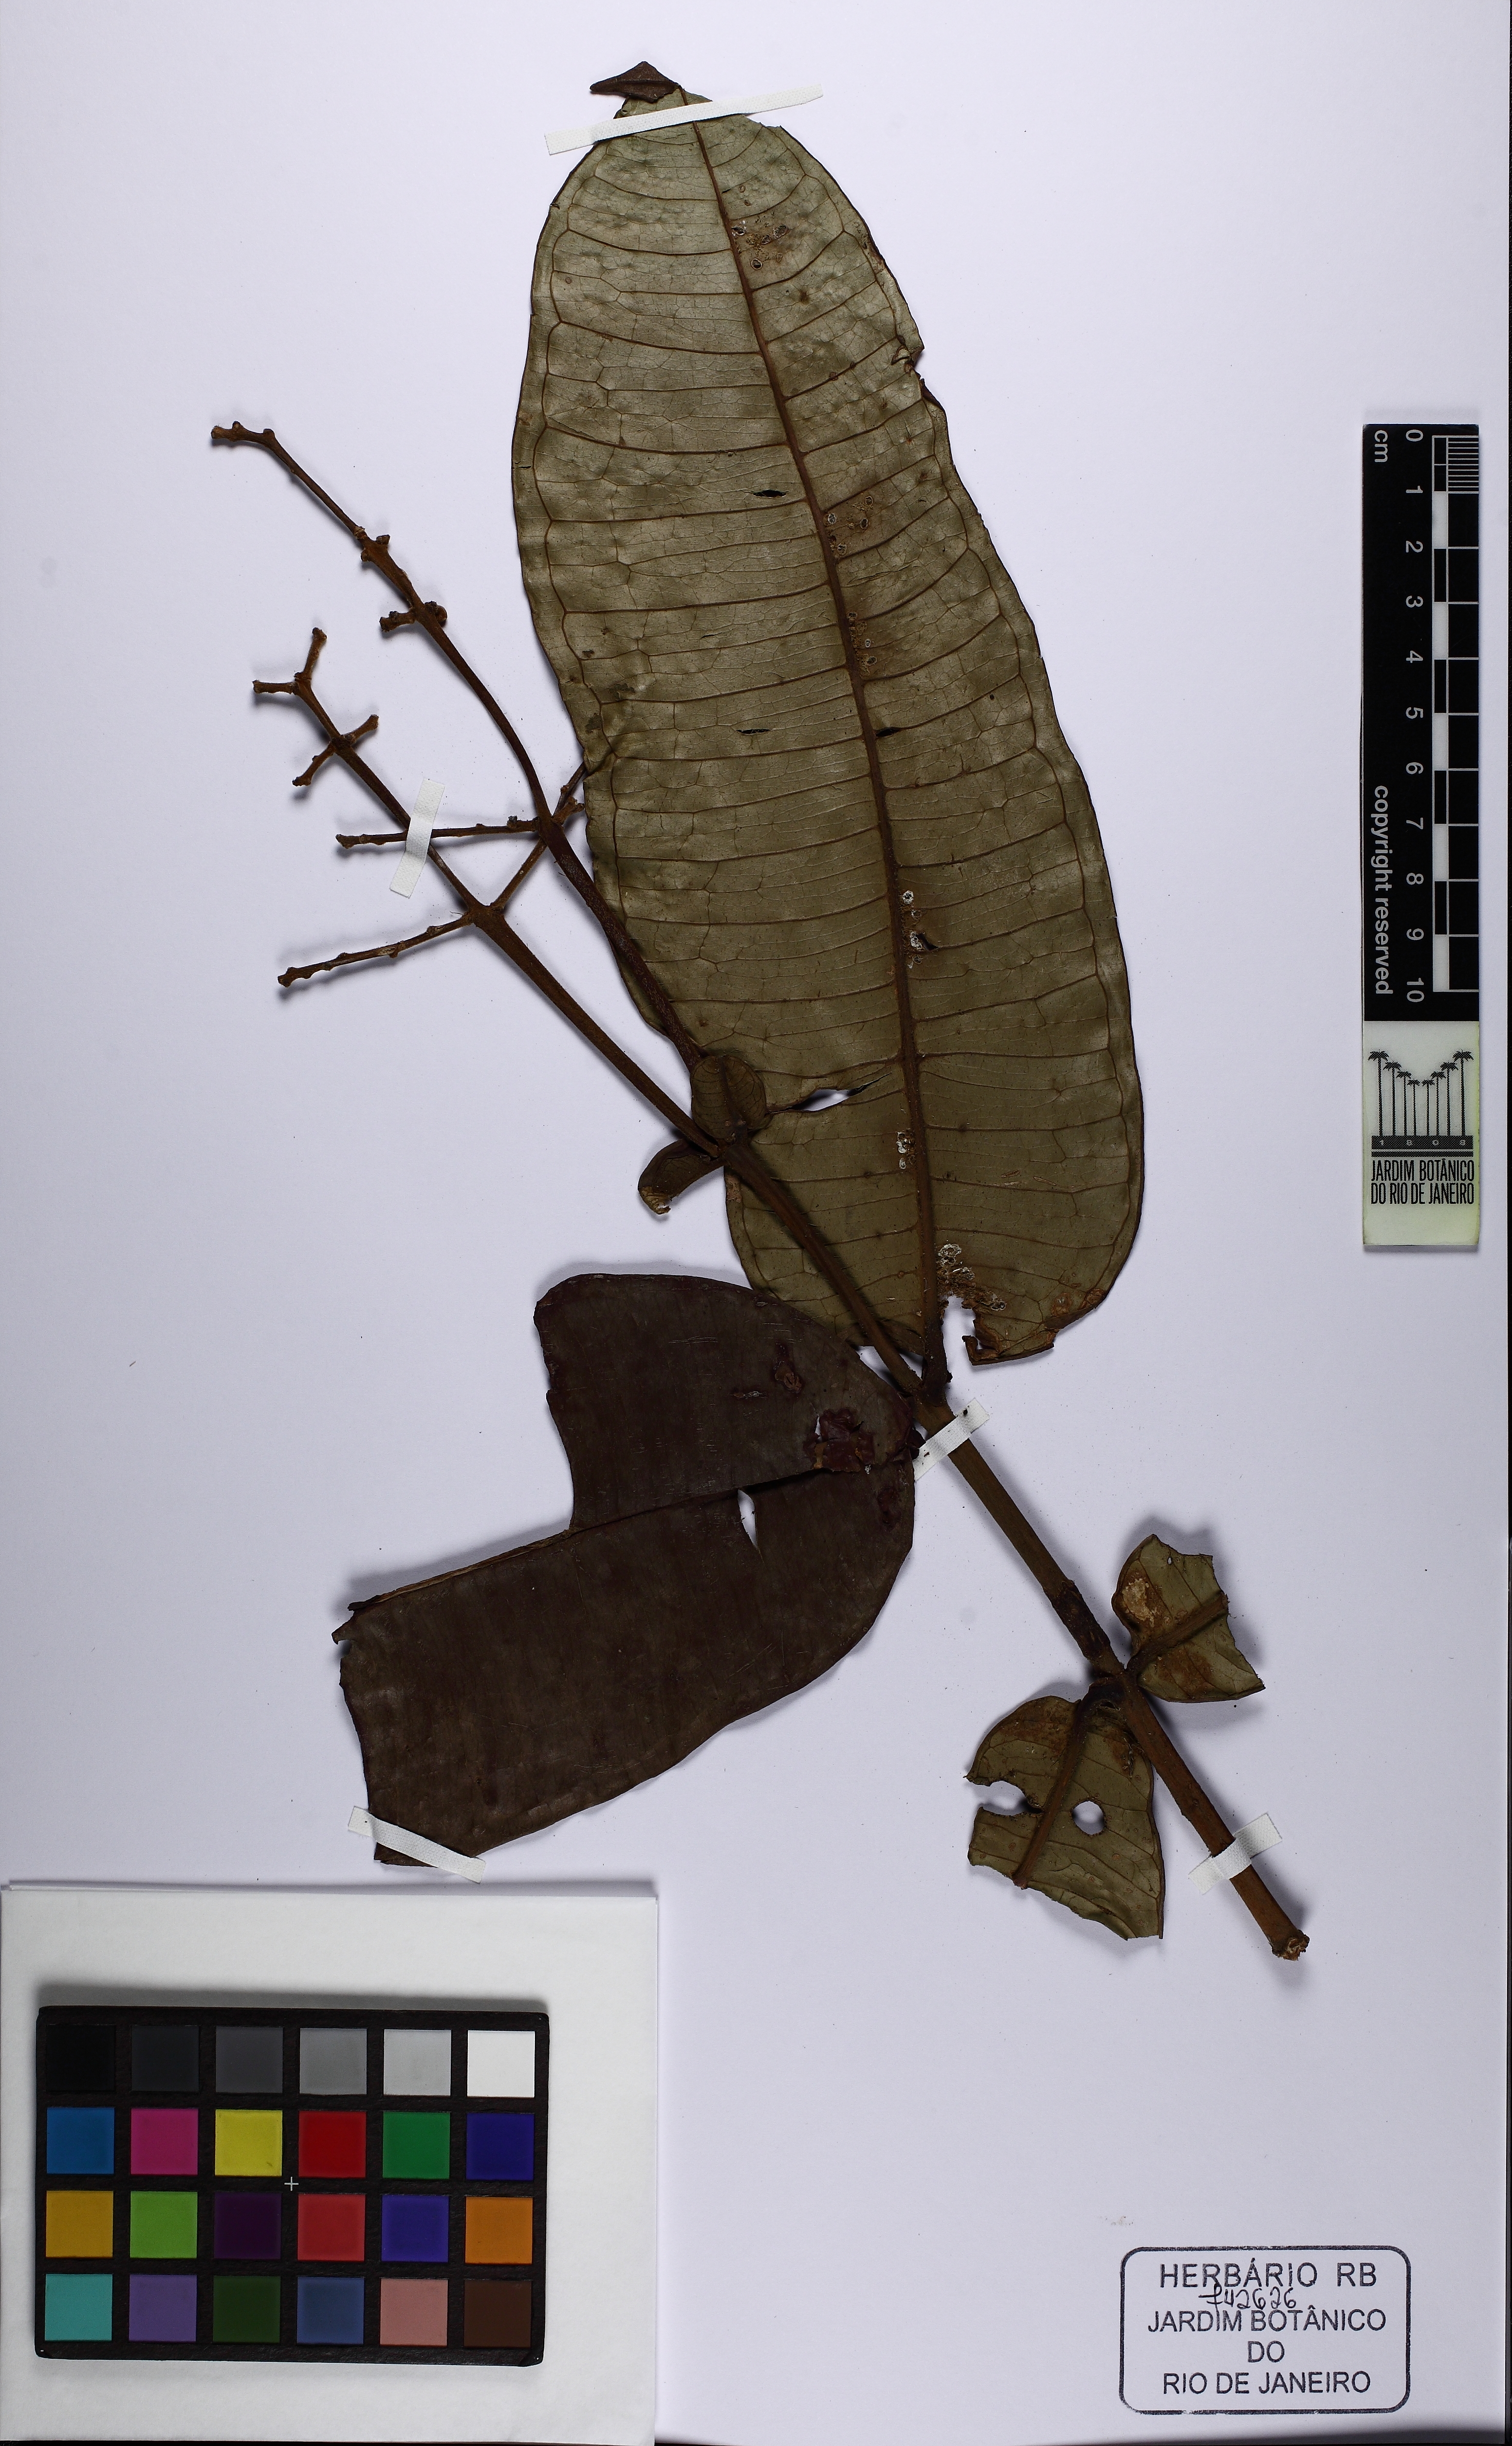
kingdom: Plantae
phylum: Tracheophyta
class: Magnoliopsida
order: Myrtales
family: Myrtaceae
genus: Myrcia
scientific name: Myrcia grandifolia
